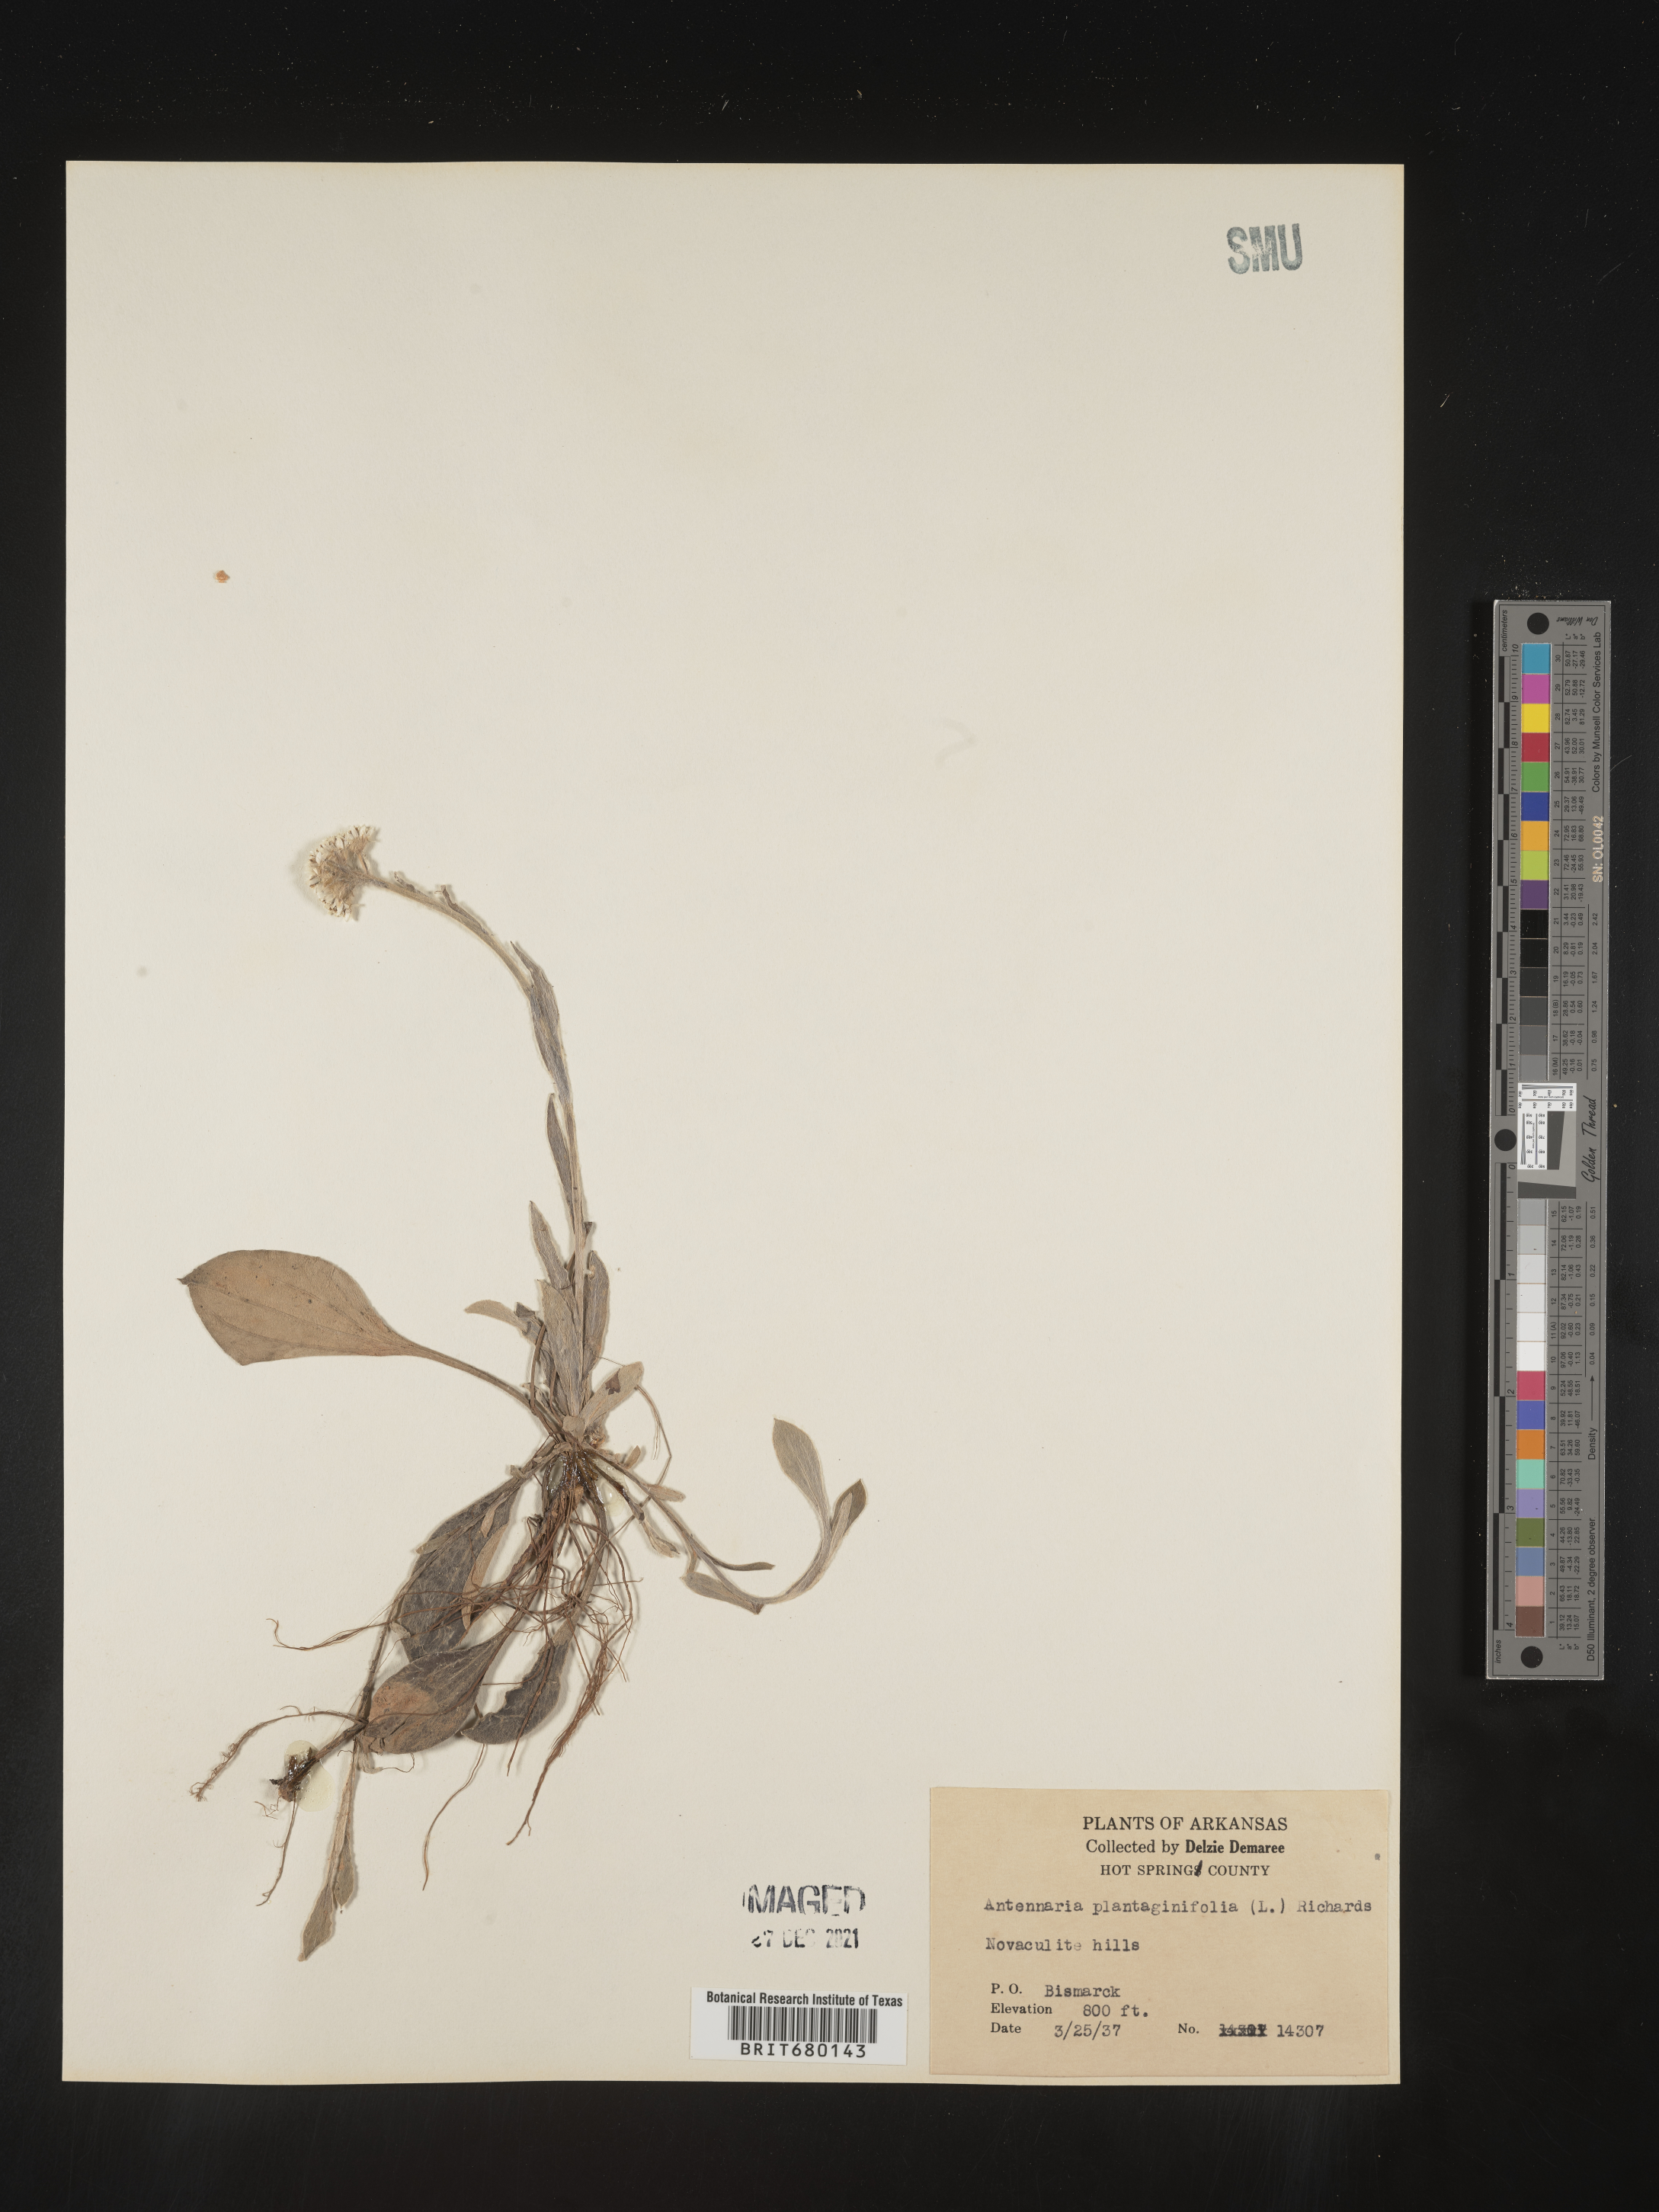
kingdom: Plantae
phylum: Tracheophyta
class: Magnoliopsida
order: Asterales
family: Asteraceae
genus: Antennaria
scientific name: Antennaria plantaginifolia
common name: Plantain-leaved pussytoes
